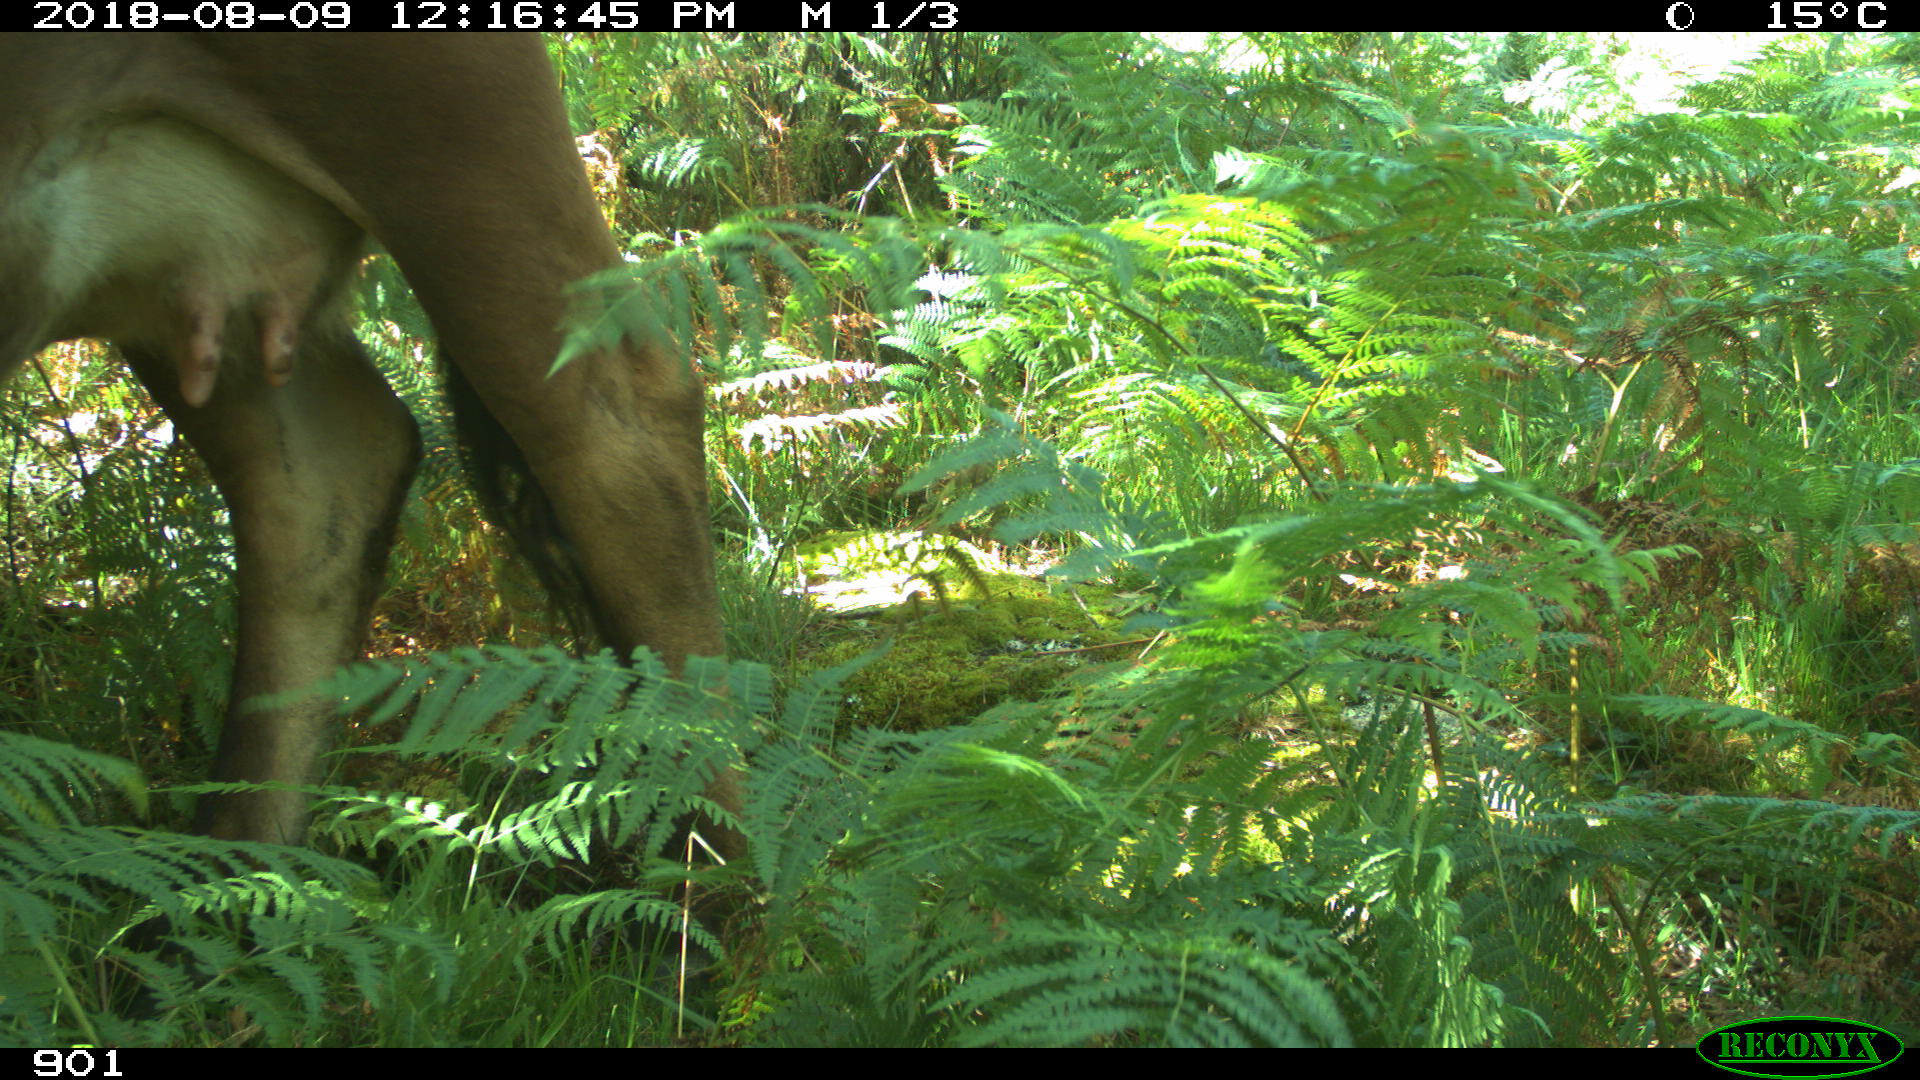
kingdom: Animalia
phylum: Chordata
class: Mammalia
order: Artiodactyla
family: Bovidae
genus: Bos
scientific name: Bos taurus
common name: Domesticated cattle
